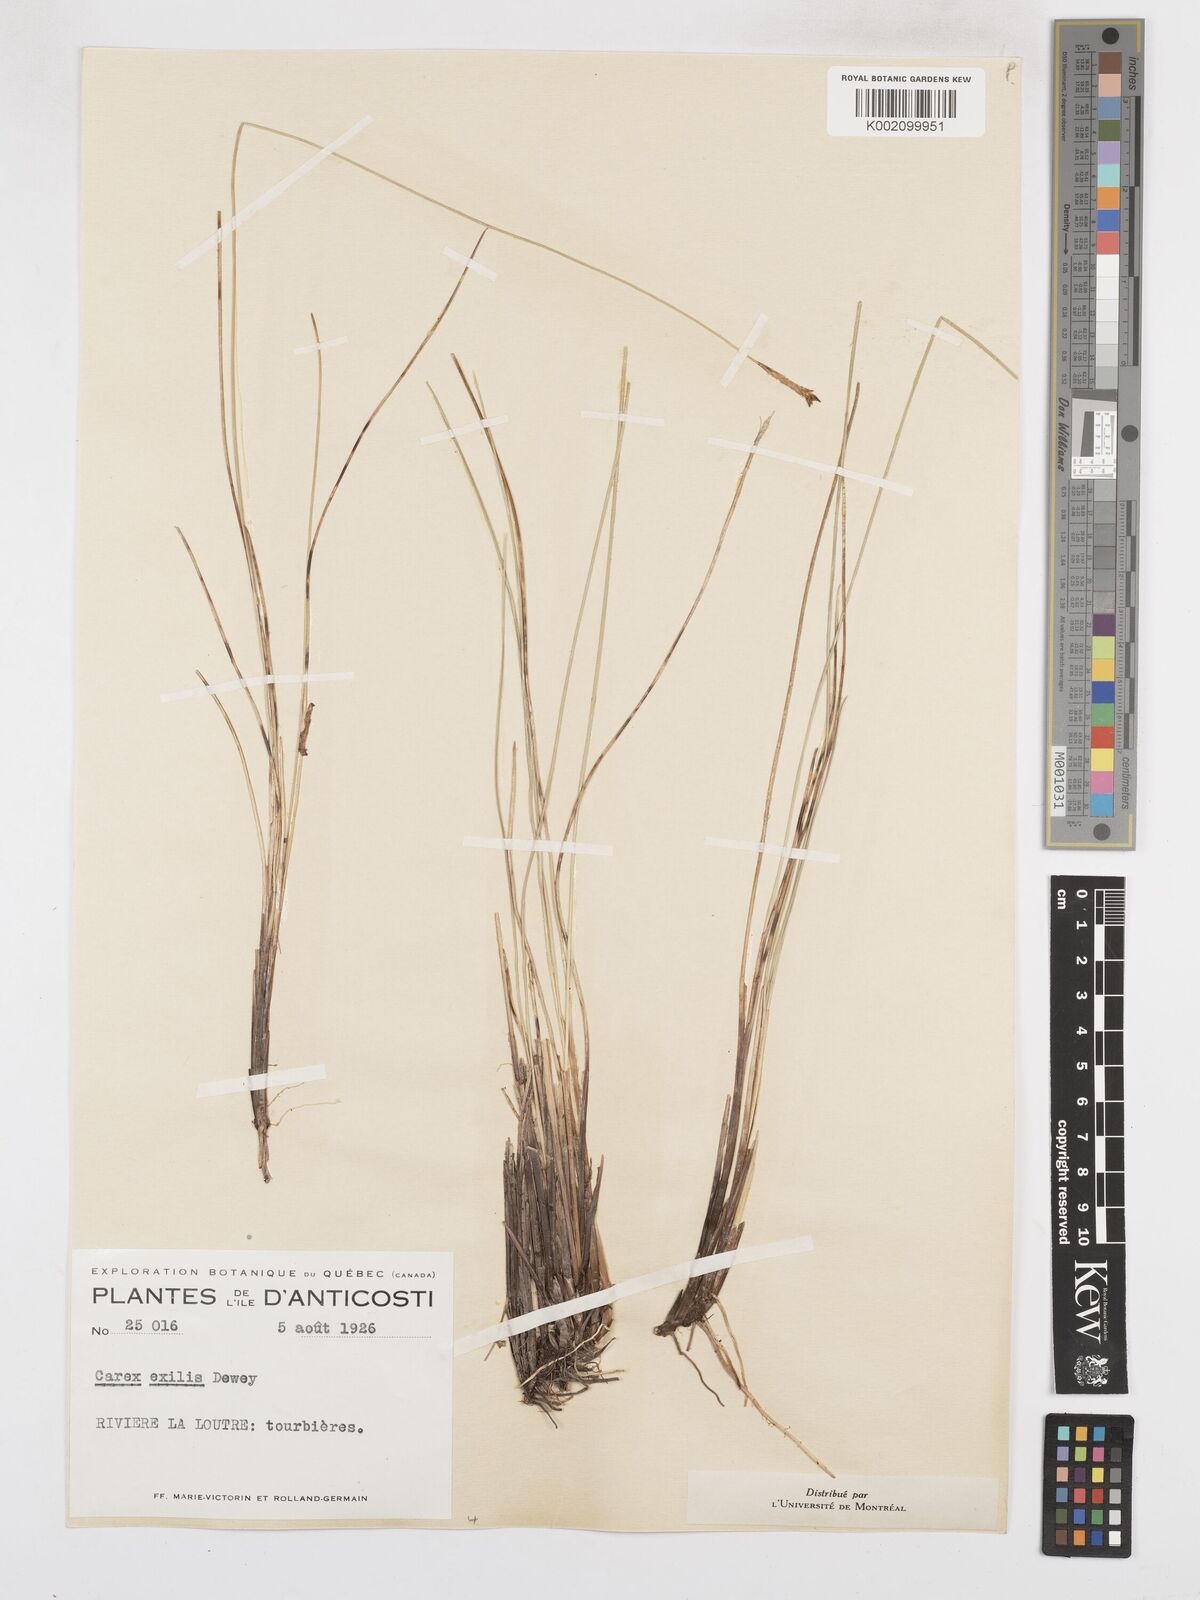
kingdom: Plantae
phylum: Tracheophyta
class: Liliopsida
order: Poales
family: Cyperaceae
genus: Carex
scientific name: Carex exilis
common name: Coastal sedge
